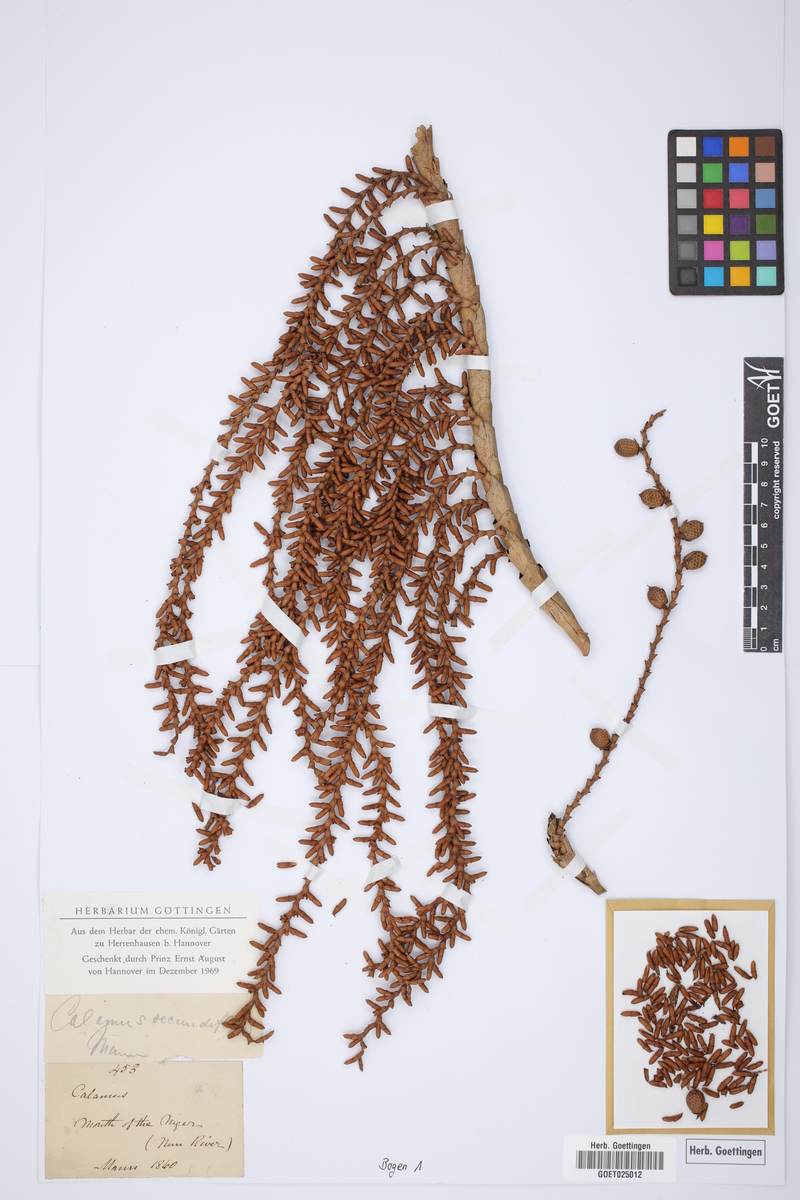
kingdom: Plantae
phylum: Tracheophyta
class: Liliopsida
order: Arecales
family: Arecaceae
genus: Laccosperma
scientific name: Laccosperma secundiflorum
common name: Rattan
